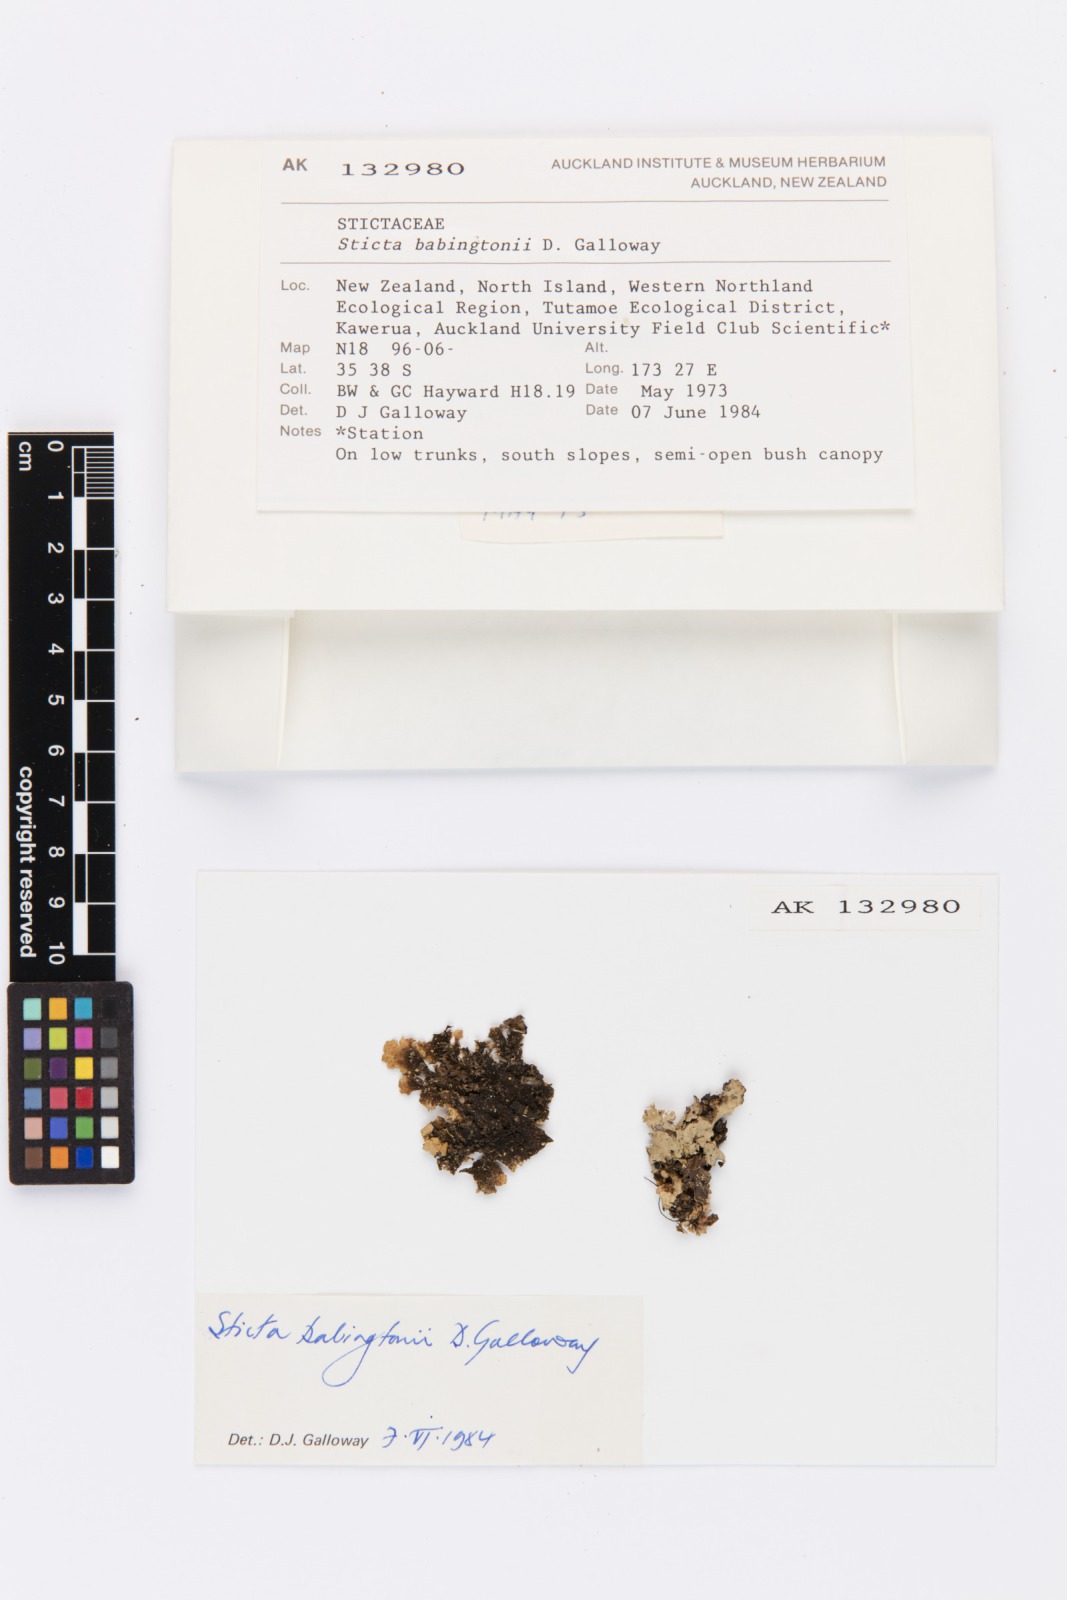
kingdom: Fungi
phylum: Ascomycota
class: Lecanoromycetes
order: Peltigerales
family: Lobariaceae
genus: Sticta
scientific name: Sticta babingtonii
